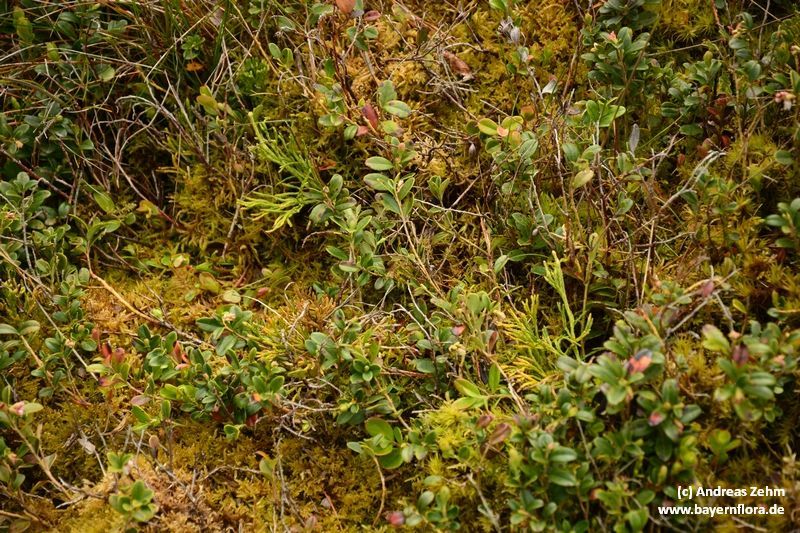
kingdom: Plantae
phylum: Tracheophyta
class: Lycopodiopsida
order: Lycopodiales
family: Lycopodiaceae
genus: Diphasiastrum
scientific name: Diphasiastrum tristachyum
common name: Blue ground-cedar
